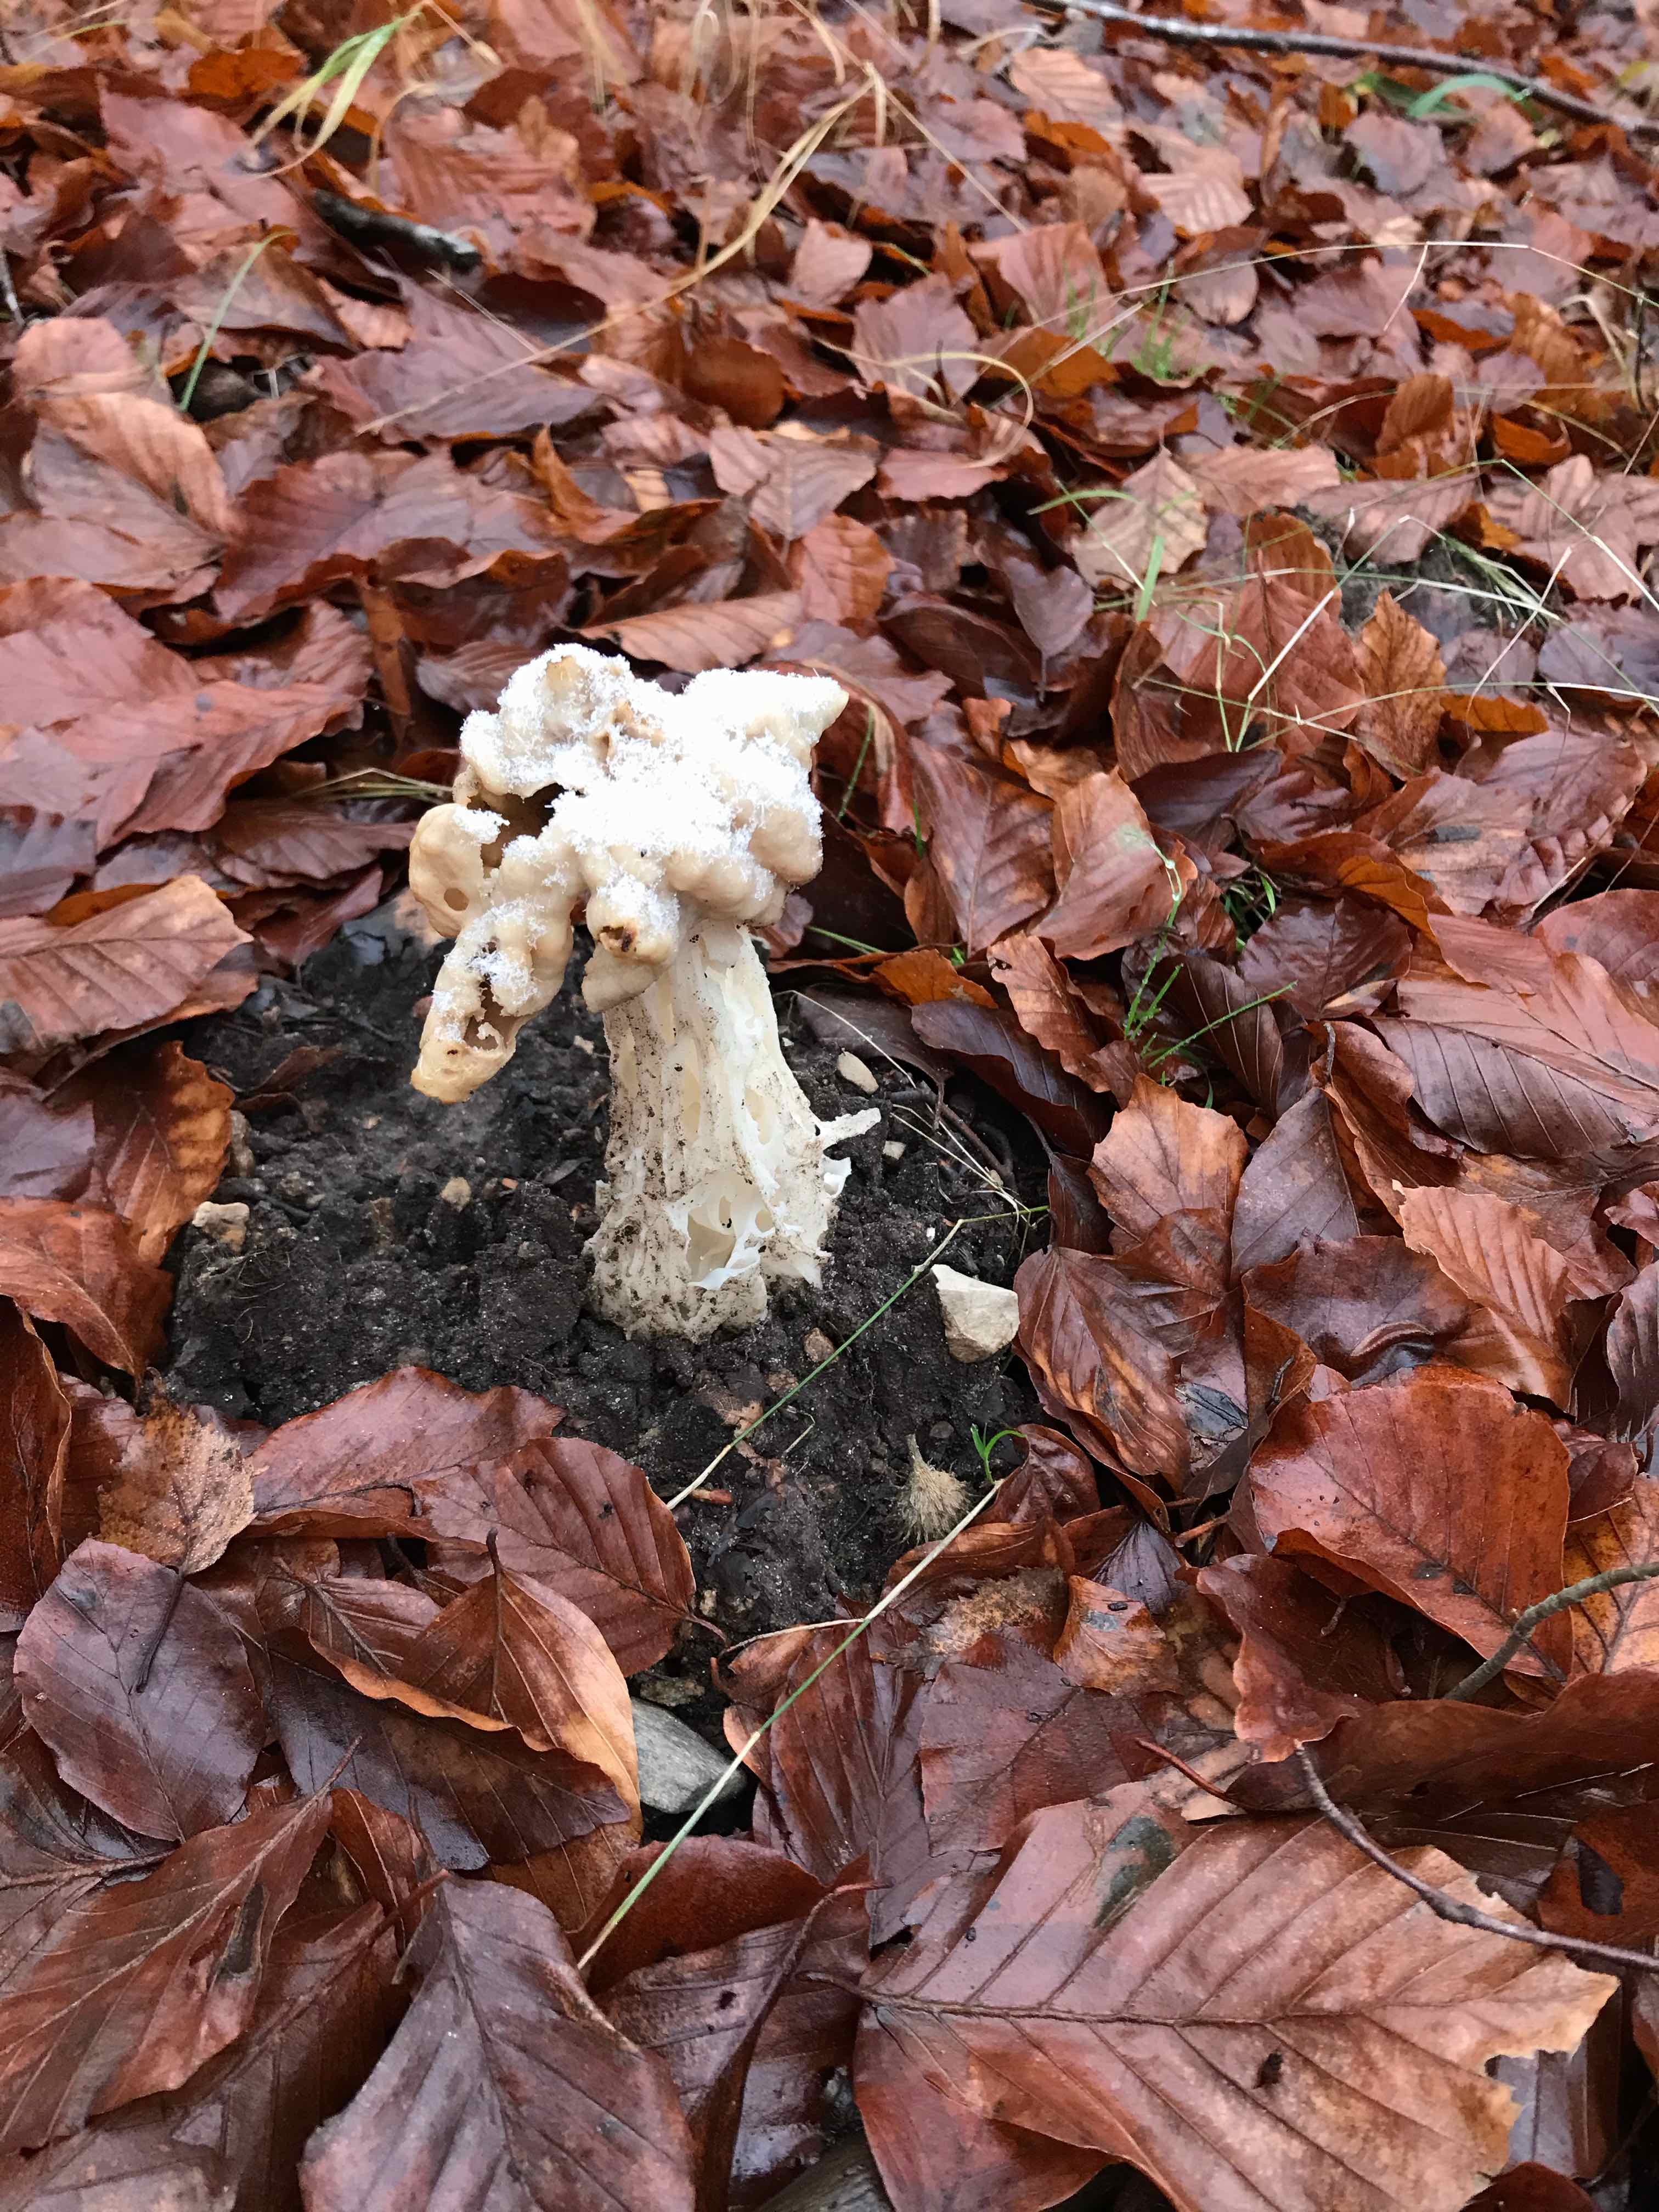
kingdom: Fungi
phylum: Ascomycota
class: Pezizomycetes
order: Pezizales
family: Helvellaceae
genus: Helvella
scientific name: Helvella crispa
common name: kruset foldhat
